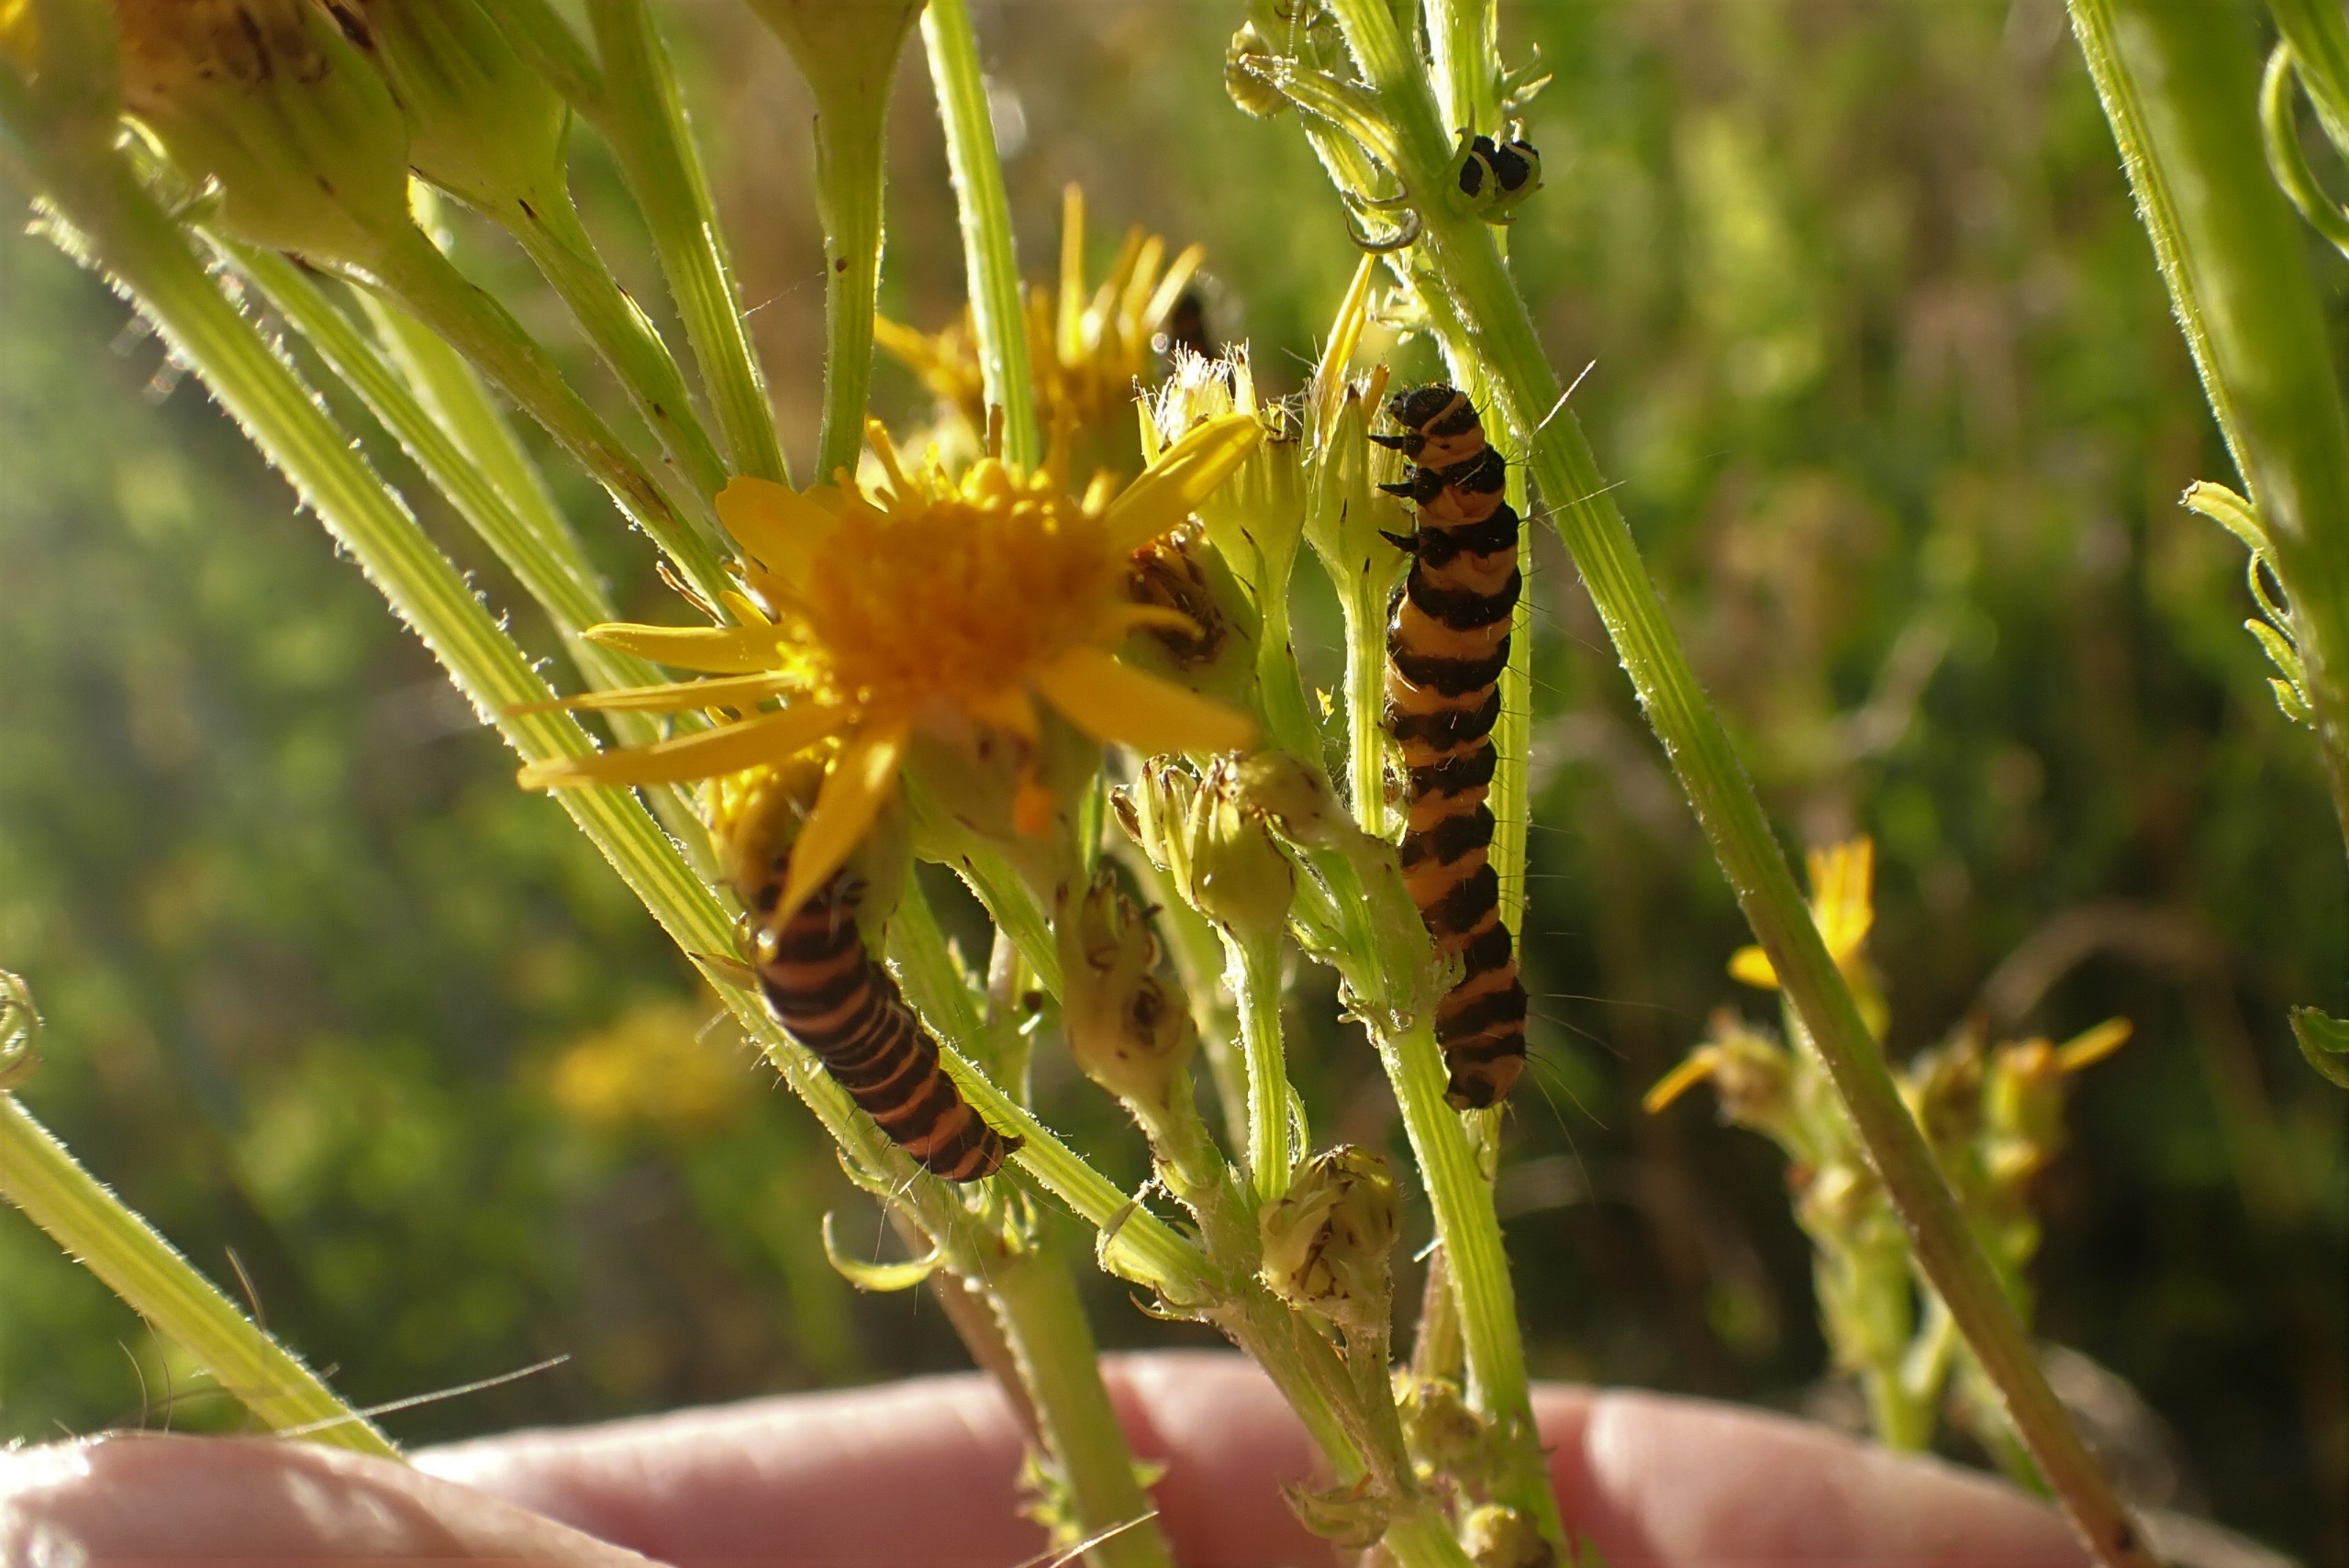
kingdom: Animalia
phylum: Arthropoda
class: Insecta
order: Lepidoptera
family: Erebidae
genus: Tyria
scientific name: Tyria jacobaeae
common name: Blodplet
